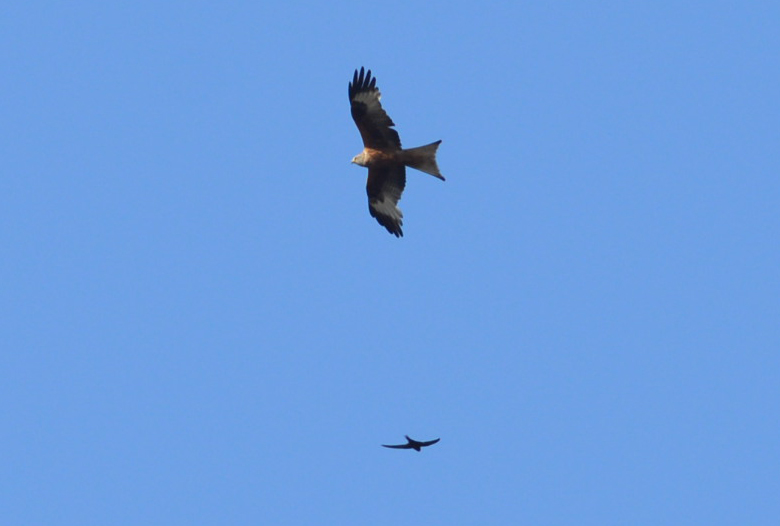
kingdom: Animalia
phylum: Chordata
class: Aves
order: Accipitriformes
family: Accipitridae
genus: Milvus
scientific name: Milvus milvus
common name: Red kite
